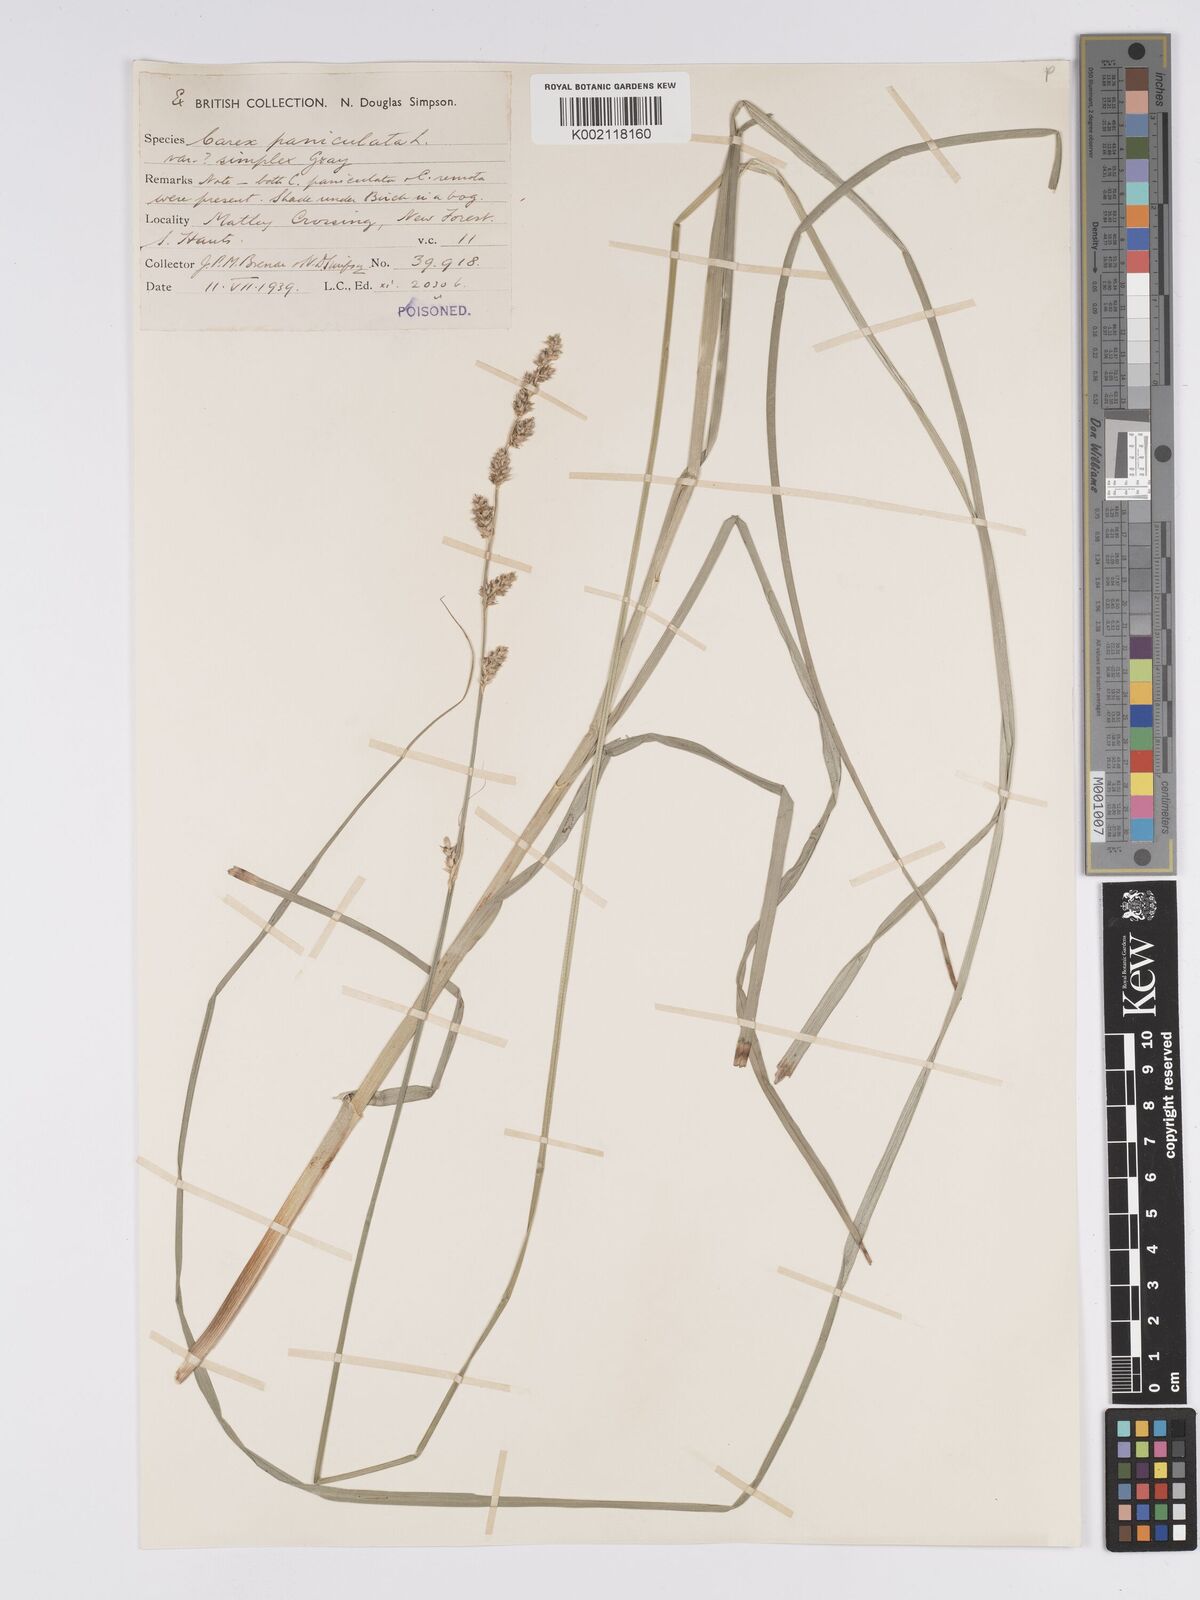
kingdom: Plantae
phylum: Tracheophyta
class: Liliopsida
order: Poales
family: Cyperaceae
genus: Carex
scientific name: Carex paniculata
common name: Greater tussock-sedge
